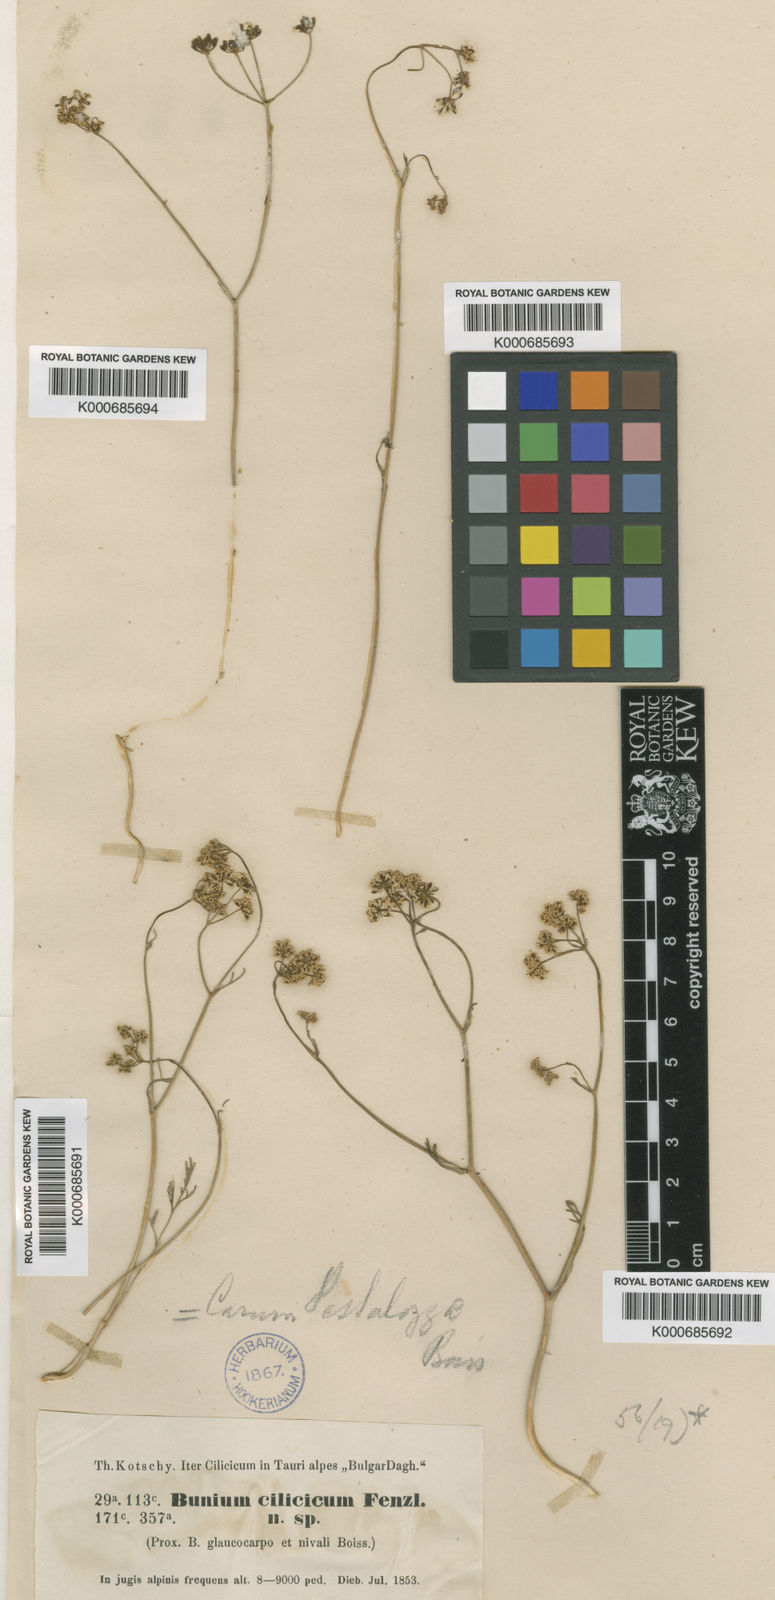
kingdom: Plantae
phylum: Tracheophyta
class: Magnoliopsida
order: Apiales
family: Apiaceae
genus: Bunium
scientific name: Bunium pestalozzae
